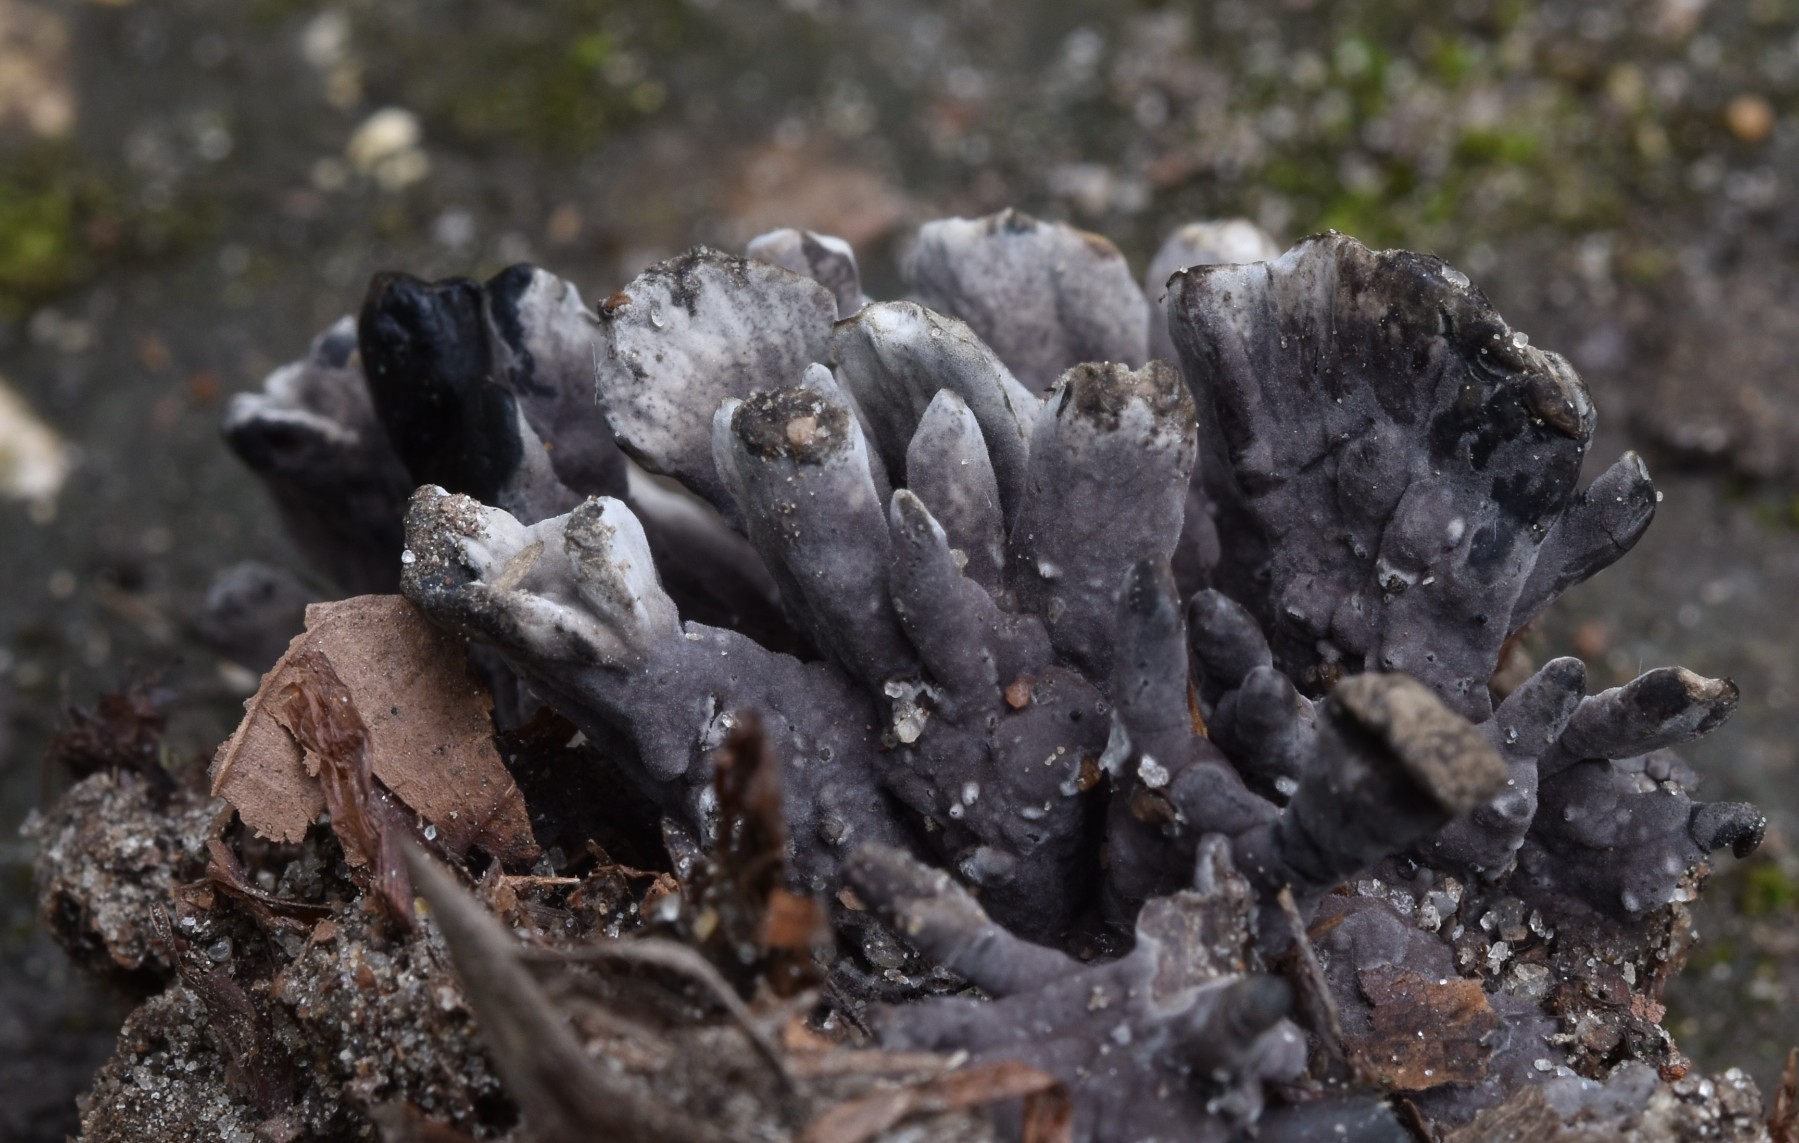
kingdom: Fungi
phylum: Basidiomycota
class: Agaricomycetes
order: Thelephorales
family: Thelephoraceae
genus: Thelephora
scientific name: Thelephora
